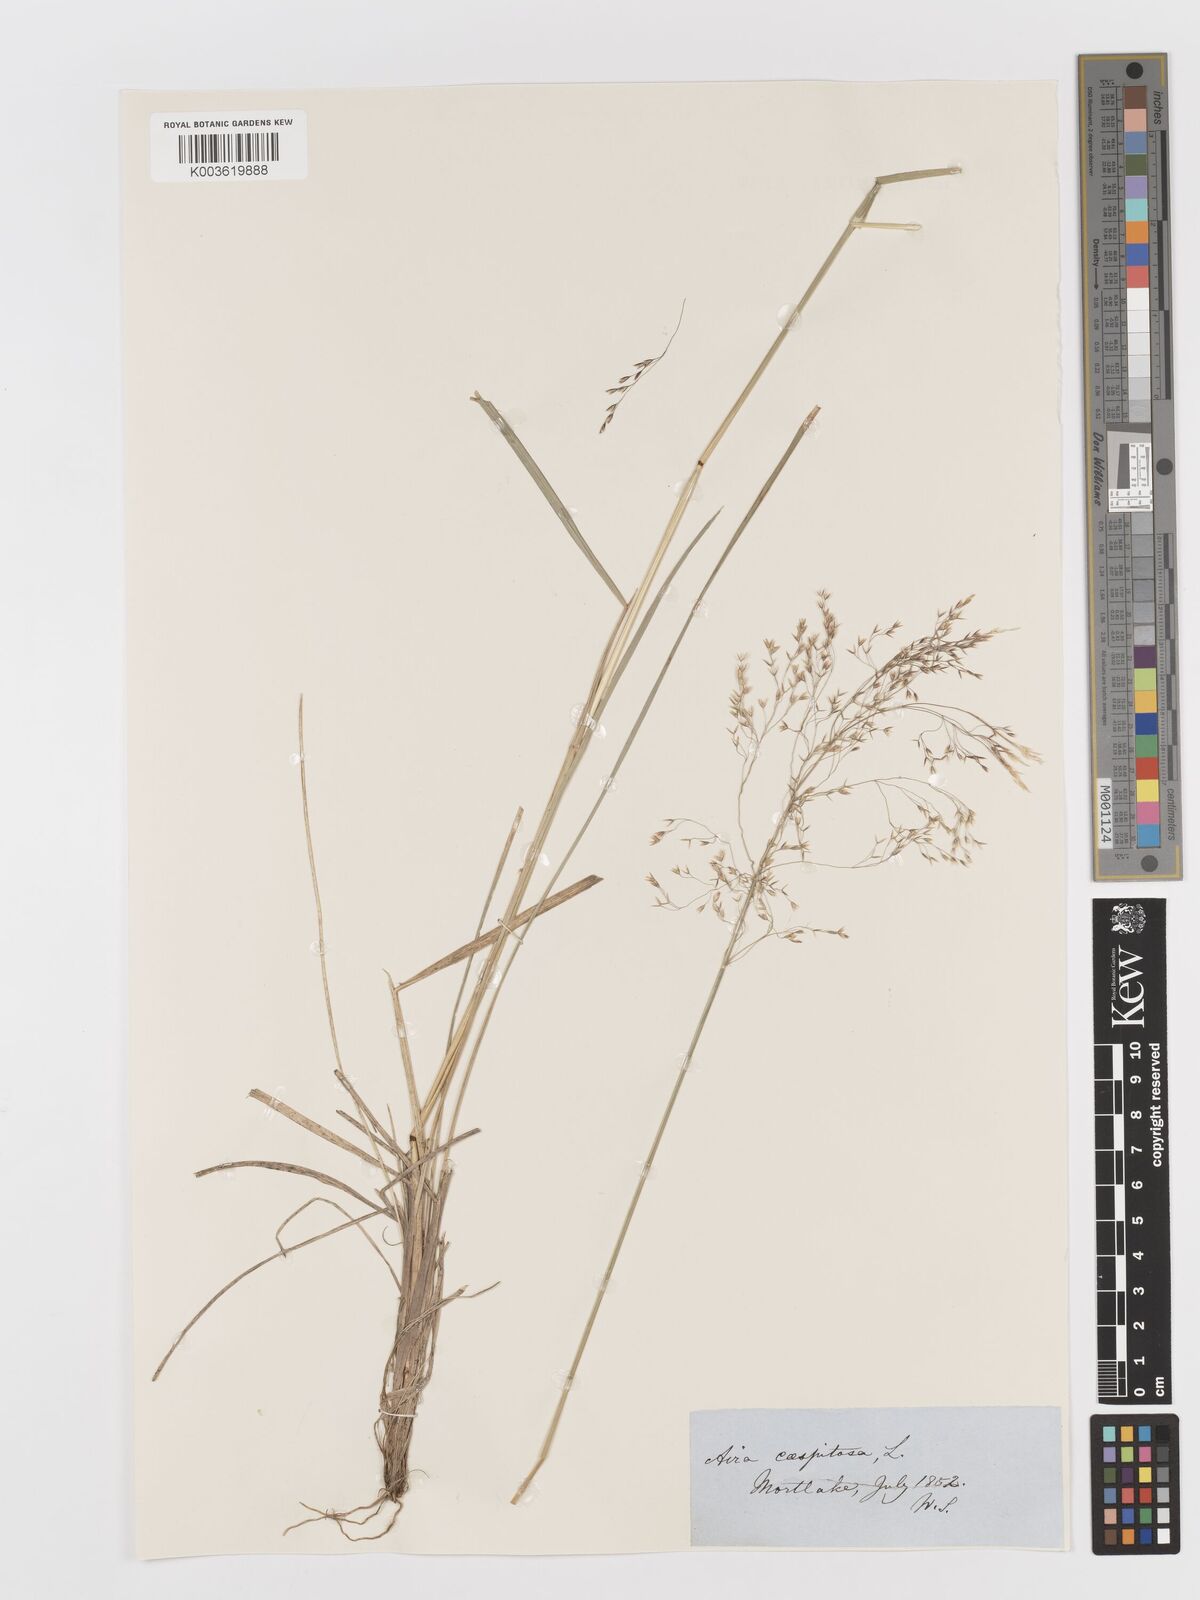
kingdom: Plantae
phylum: Tracheophyta
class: Liliopsida
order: Poales
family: Poaceae
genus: Deschampsia
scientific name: Deschampsia cespitosa
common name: Tufted hair-grass
